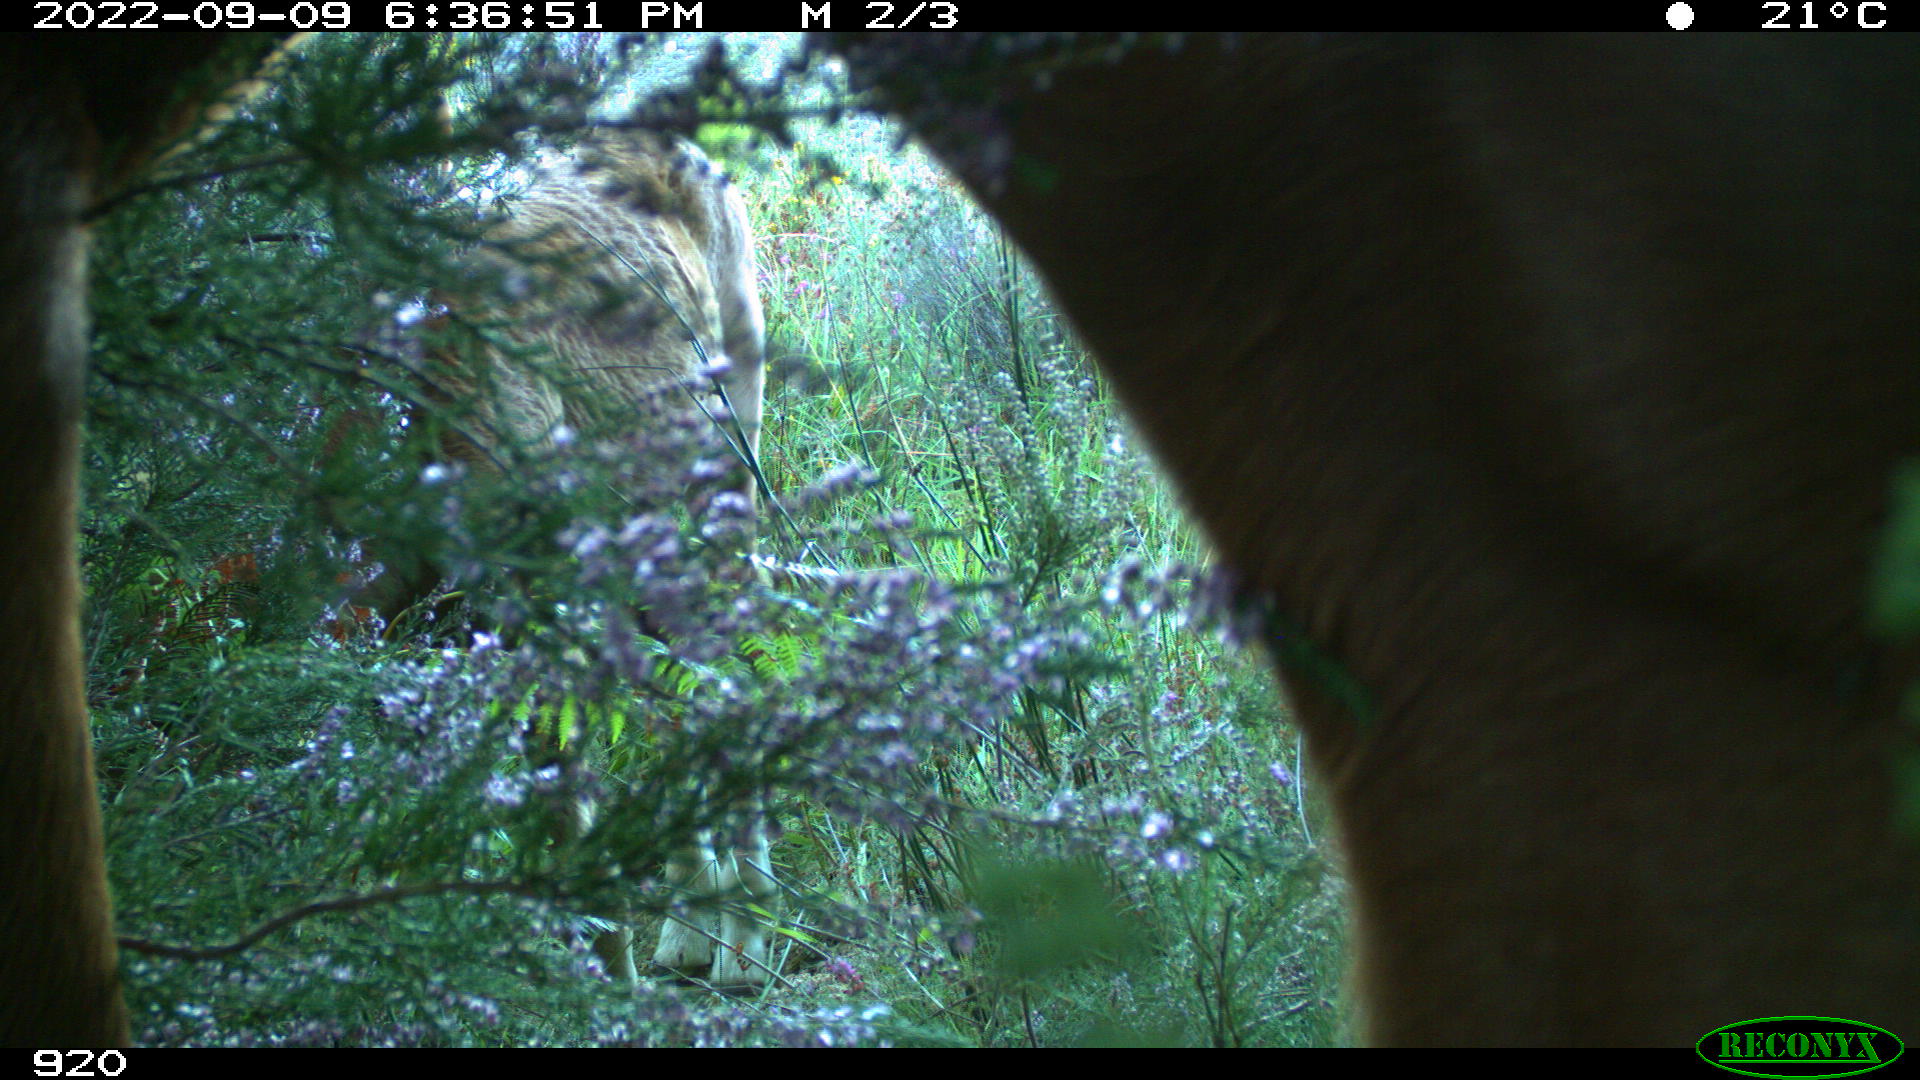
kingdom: Animalia
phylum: Chordata
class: Mammalia
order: Perissodactyla
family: Equidae
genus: Equus
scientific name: Equus caballus
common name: Horse
